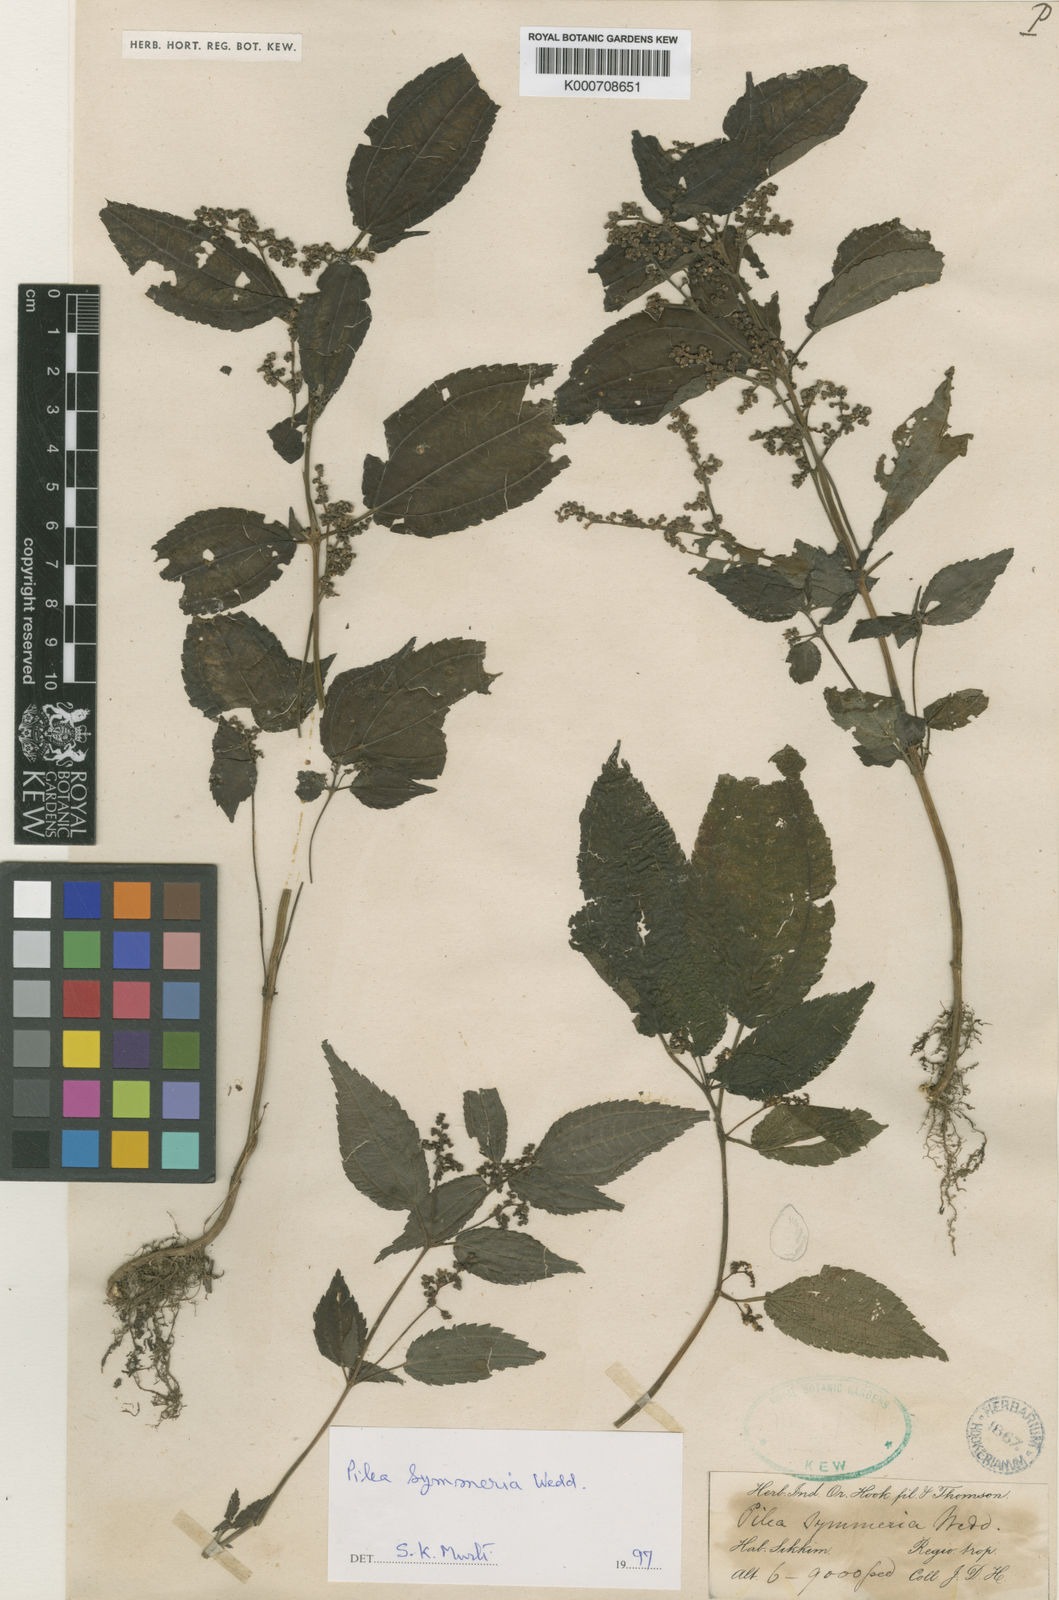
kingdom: Plantae
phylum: Tracheophyta
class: Magnoliopsida
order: Rosales
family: Urticaceae
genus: Pilea
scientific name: Pilea symmeria
